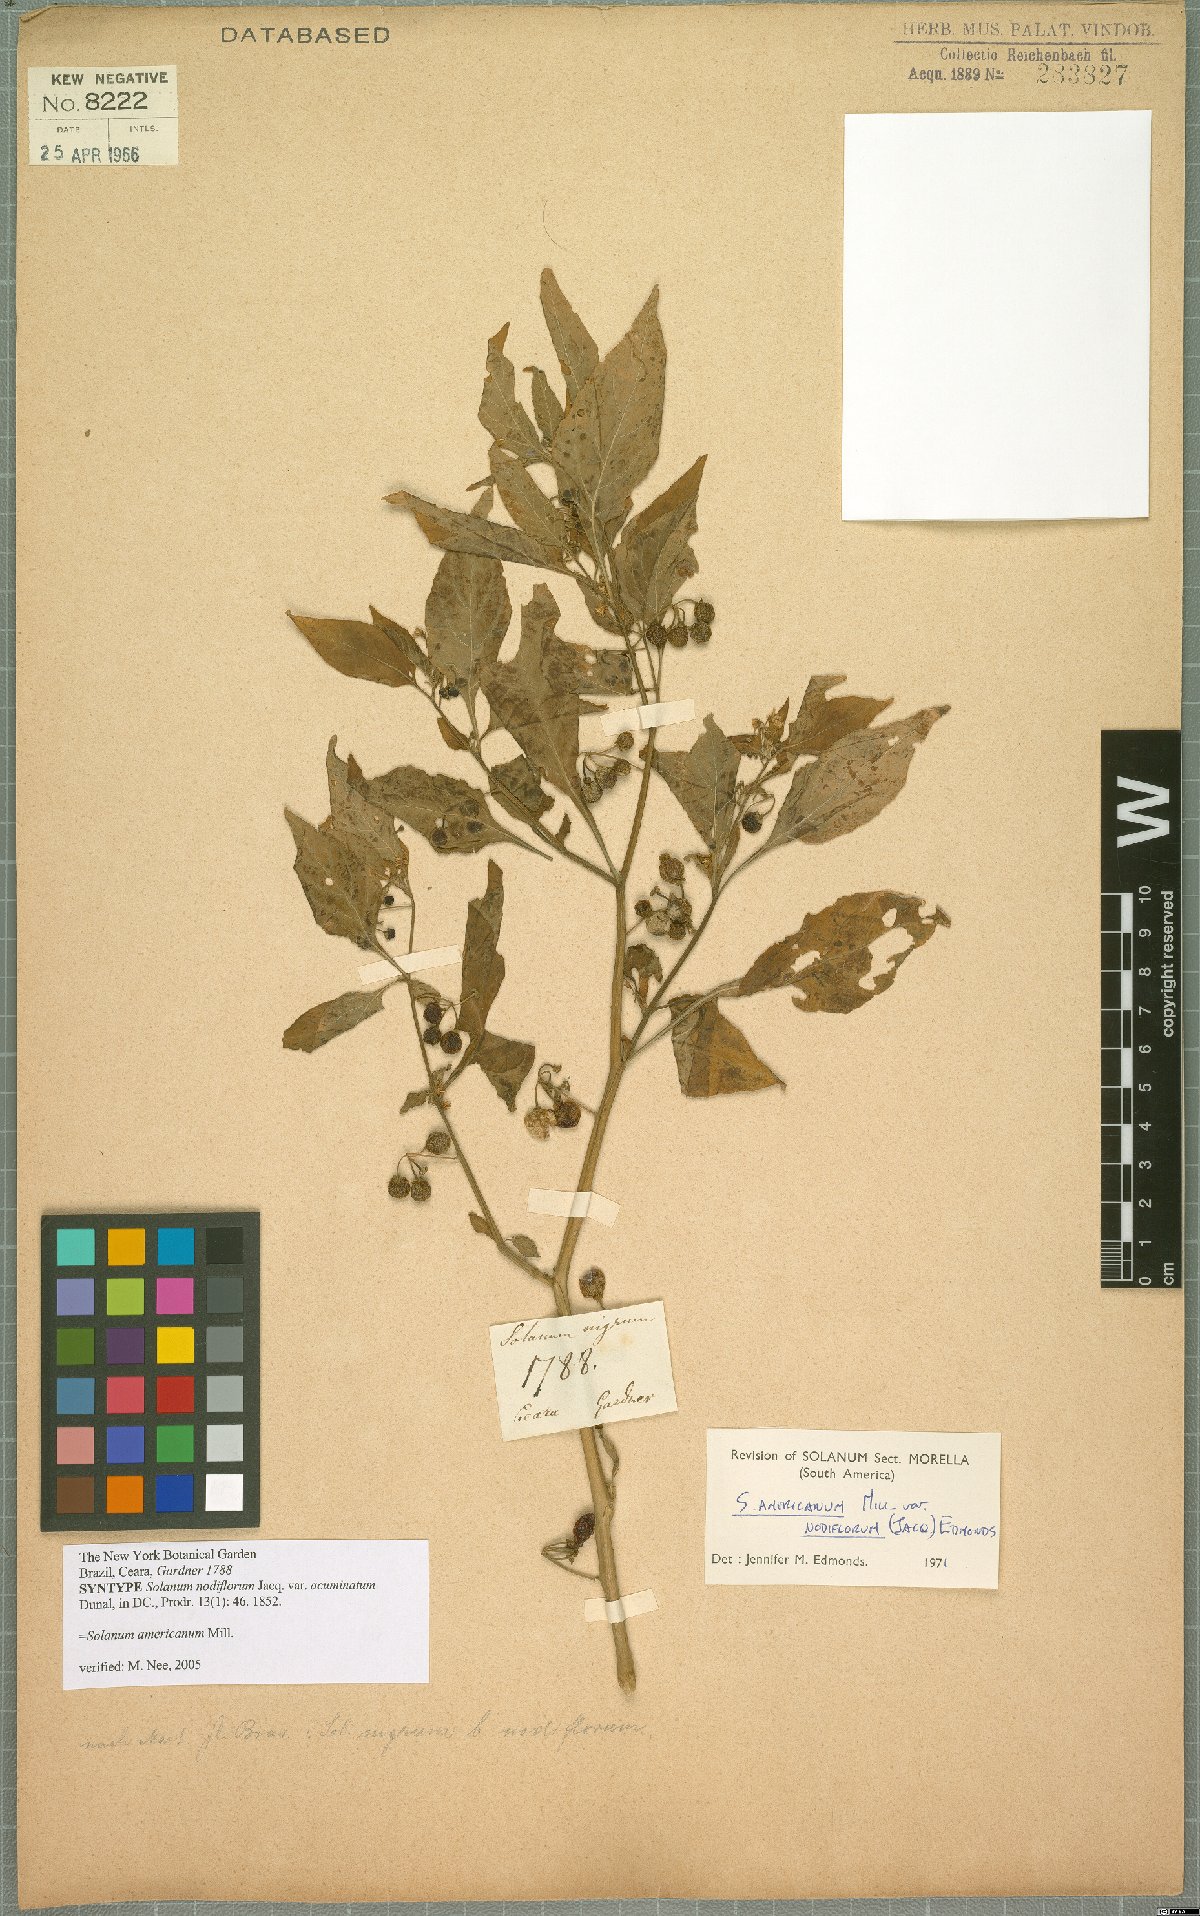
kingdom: Plantae
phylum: Tracheophyta
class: Magnoliopsida
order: Solanales
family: Solanaceae
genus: Solanum
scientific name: Solanum americanum
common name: American black nightshade
